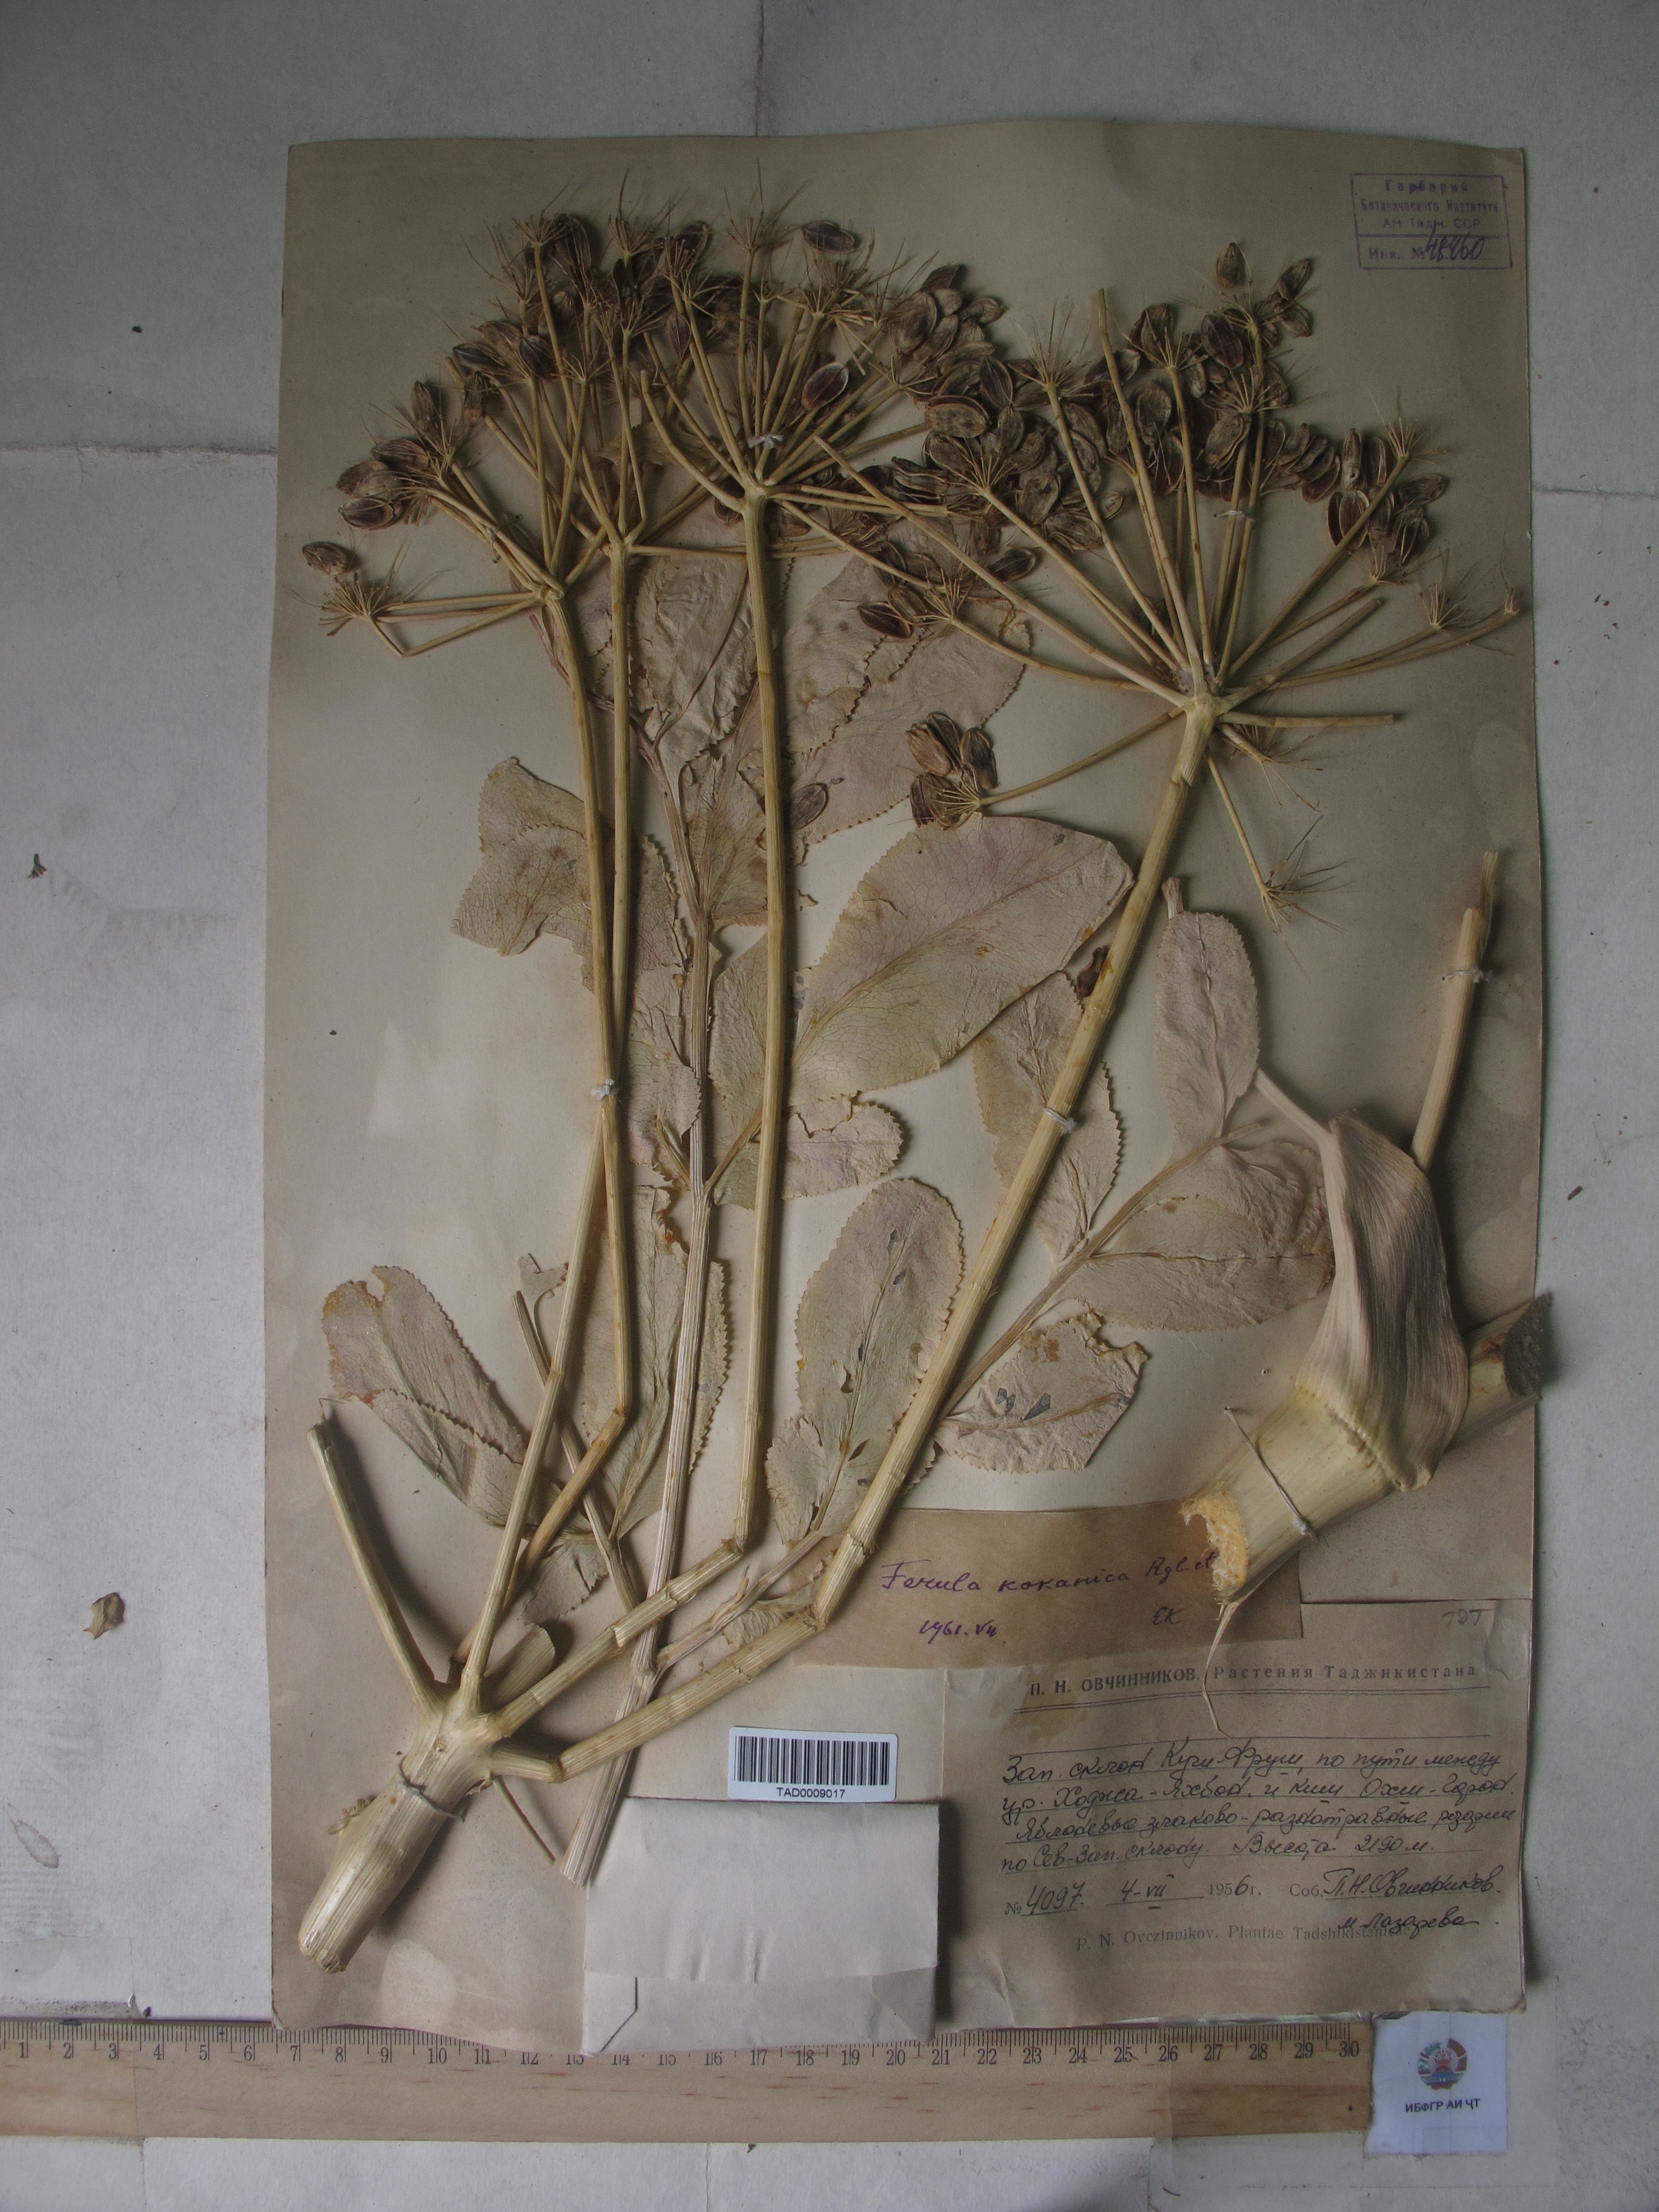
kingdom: Plantae
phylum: Tracheophyta
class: Magnoliopsida
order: Apiales
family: Apiaceae
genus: Ferula
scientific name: Ferula kokanica
